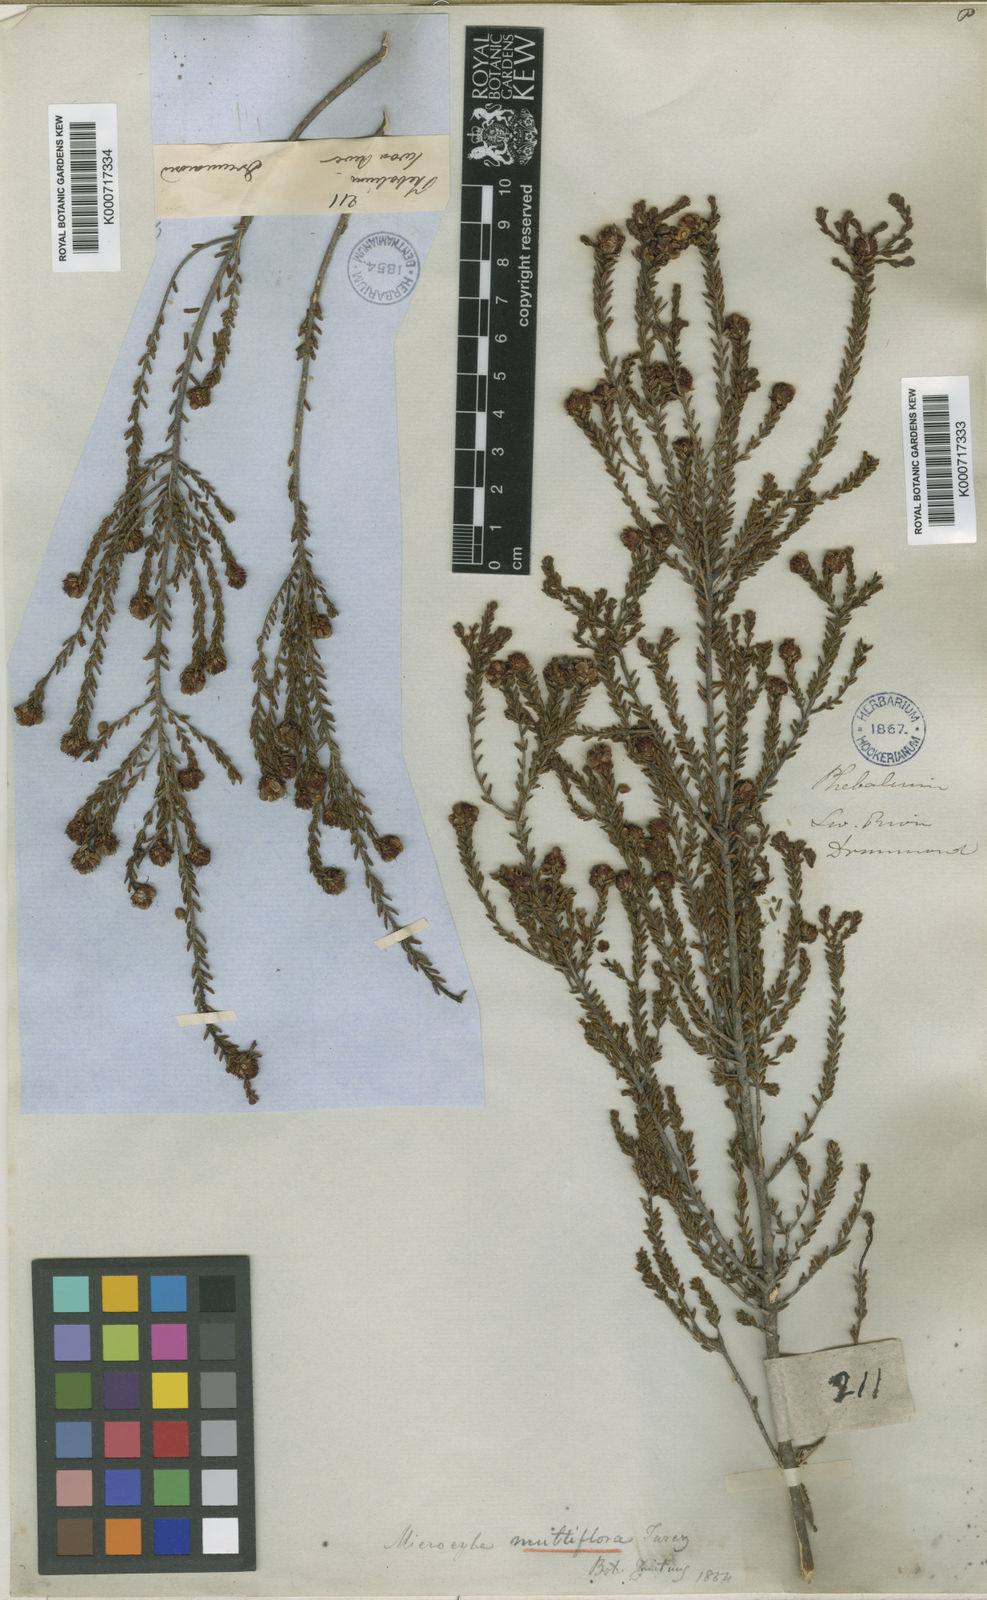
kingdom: Plantae
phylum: Tracheophyta
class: Magnoliopsida
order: Sapindales
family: Rutaceae
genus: Microcybe
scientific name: Microcybe multiflora
